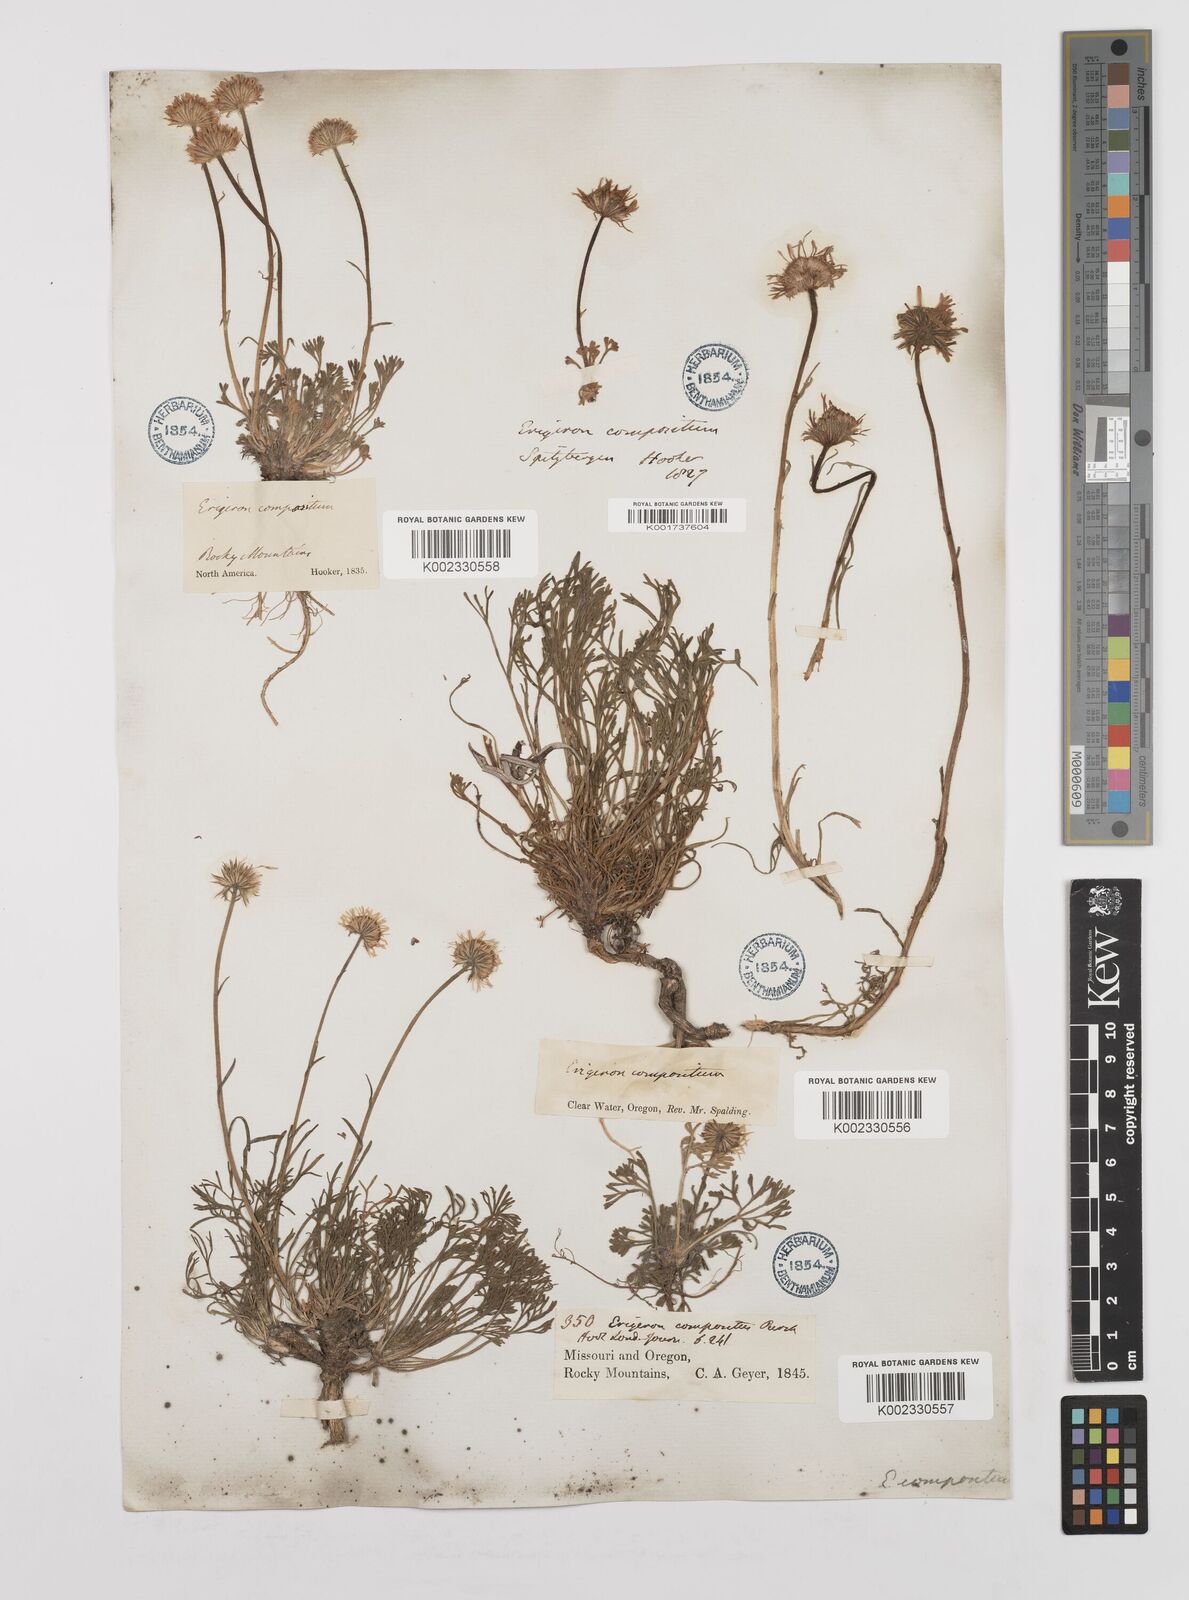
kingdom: Plantae
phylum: Tracheophyta
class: Magnoliopsida
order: Asterales
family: Asteraceae
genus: Erigeron
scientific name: Erigeron compositus
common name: Dwarf mountain fleabane
